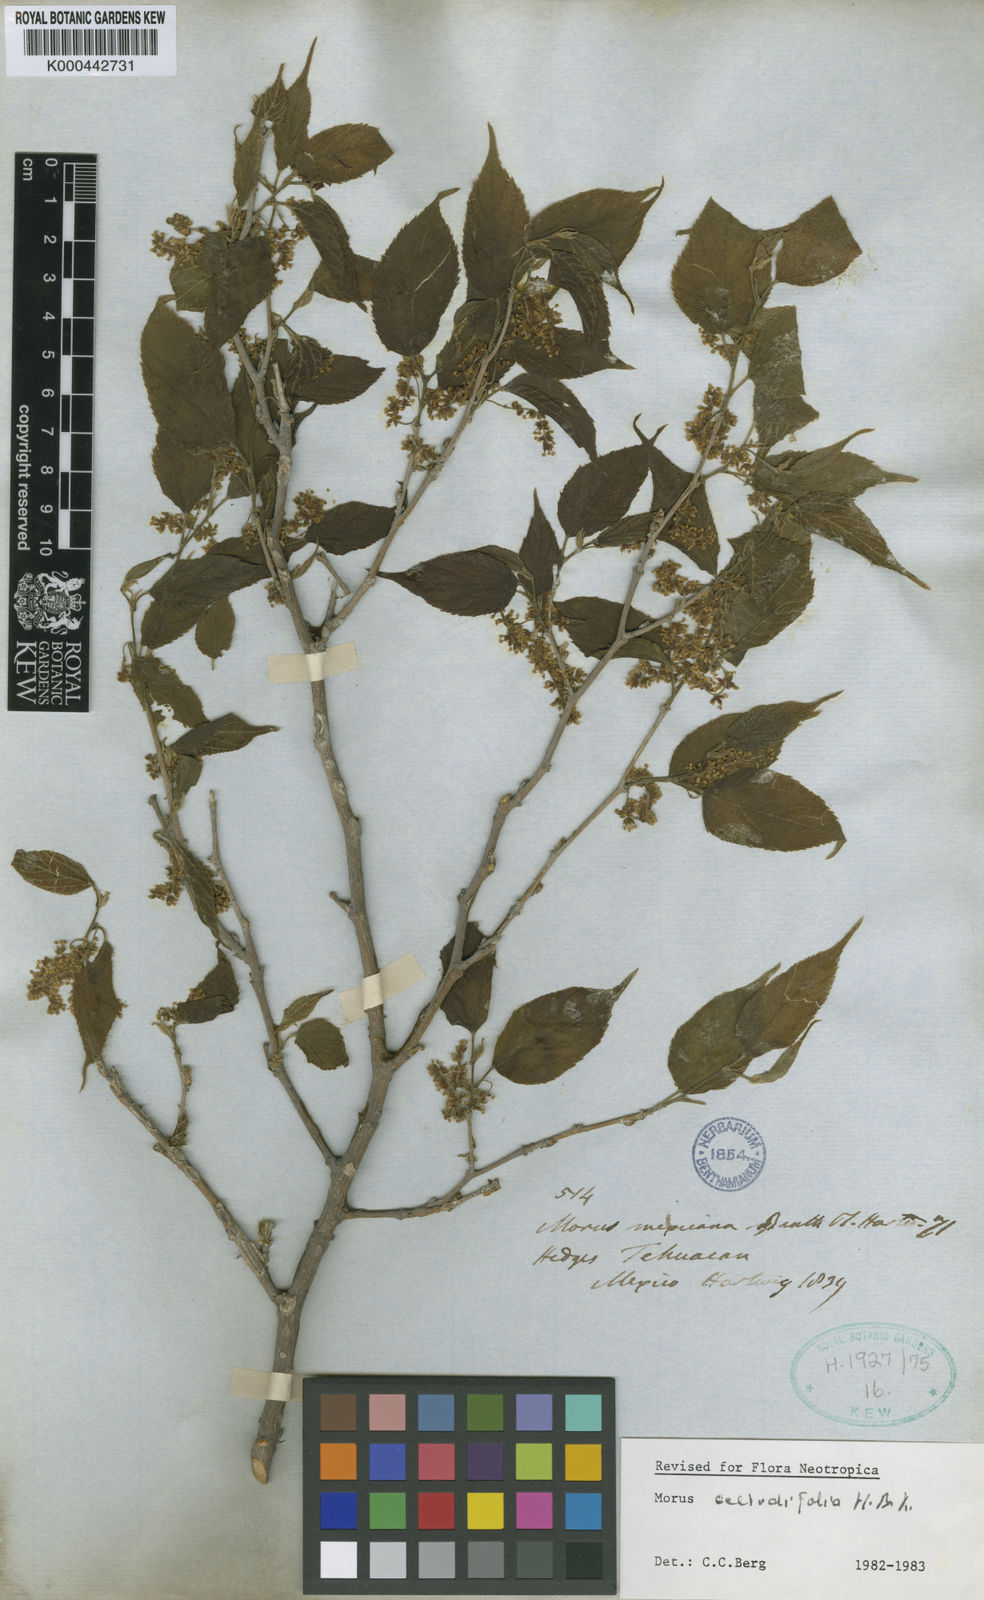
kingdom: Plantae
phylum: Tracheophyta
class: Magnoliopsida
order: Rosales
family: Moraceae
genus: Morus
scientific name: Morus celtidifolia
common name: Texas mulberry
